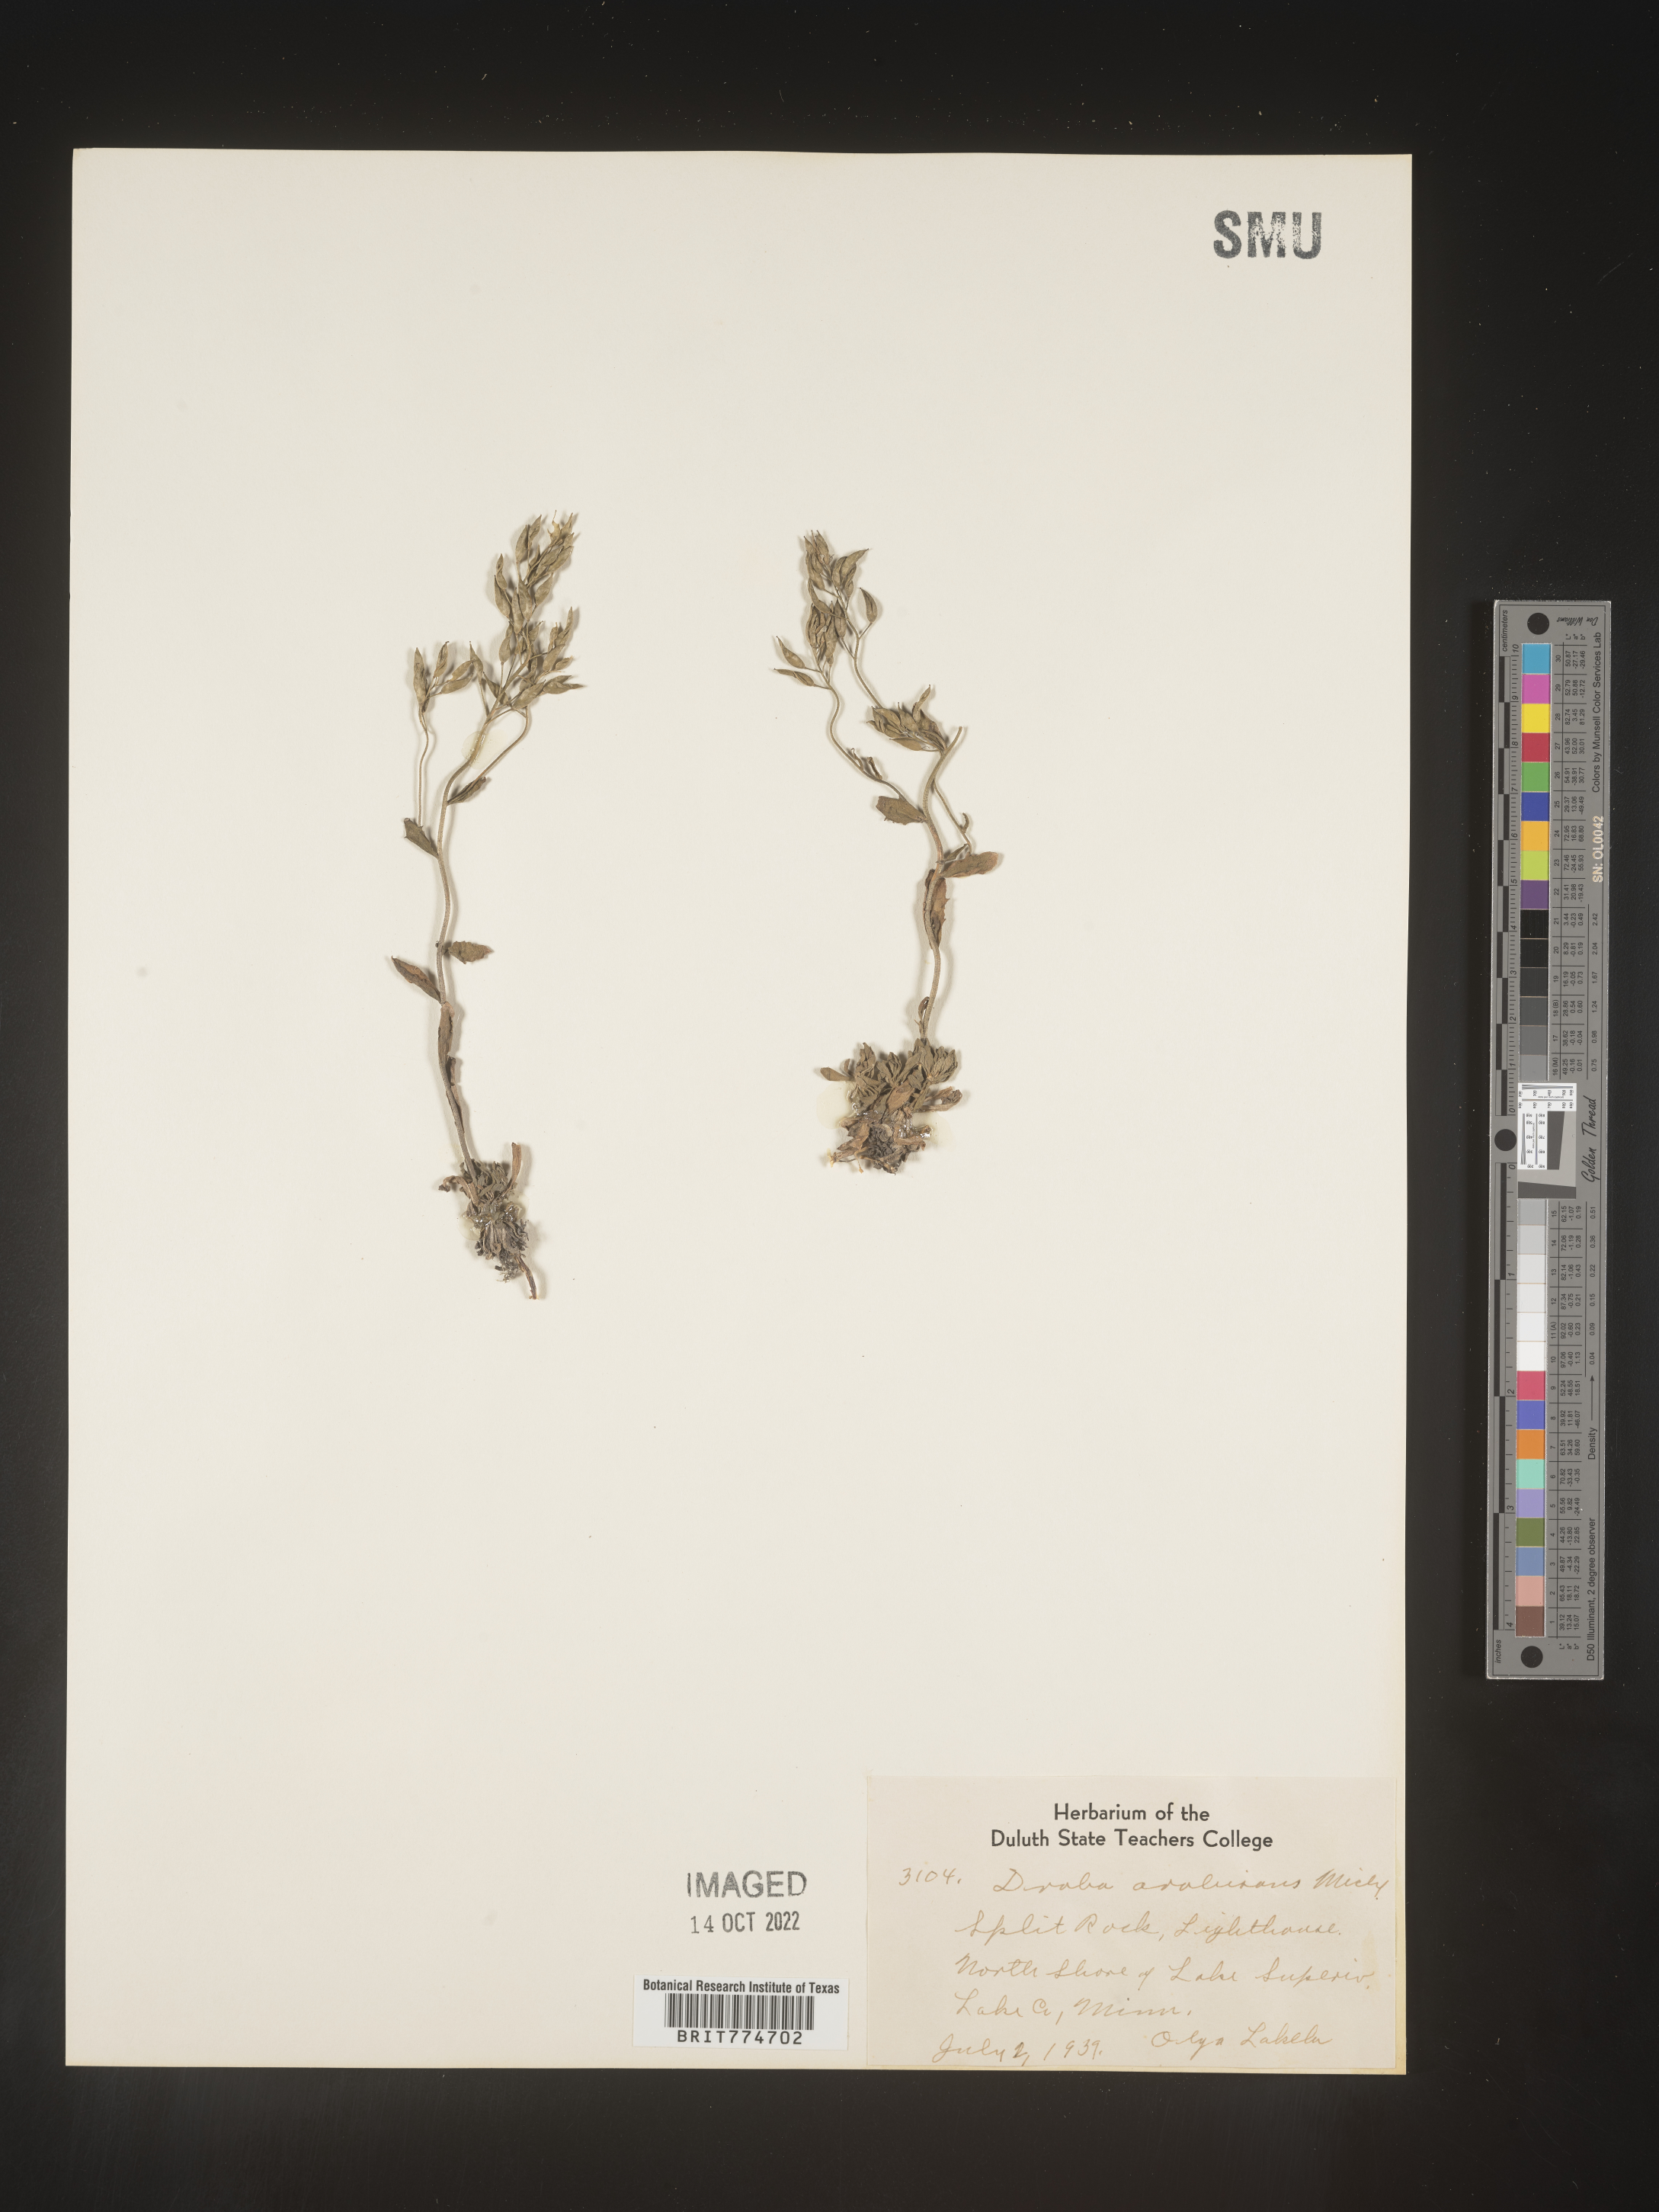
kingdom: Plantae
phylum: Tracheophyta
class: Magnoliopsida
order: Brassicales
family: Brassicaceae
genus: Draba
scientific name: Draba
